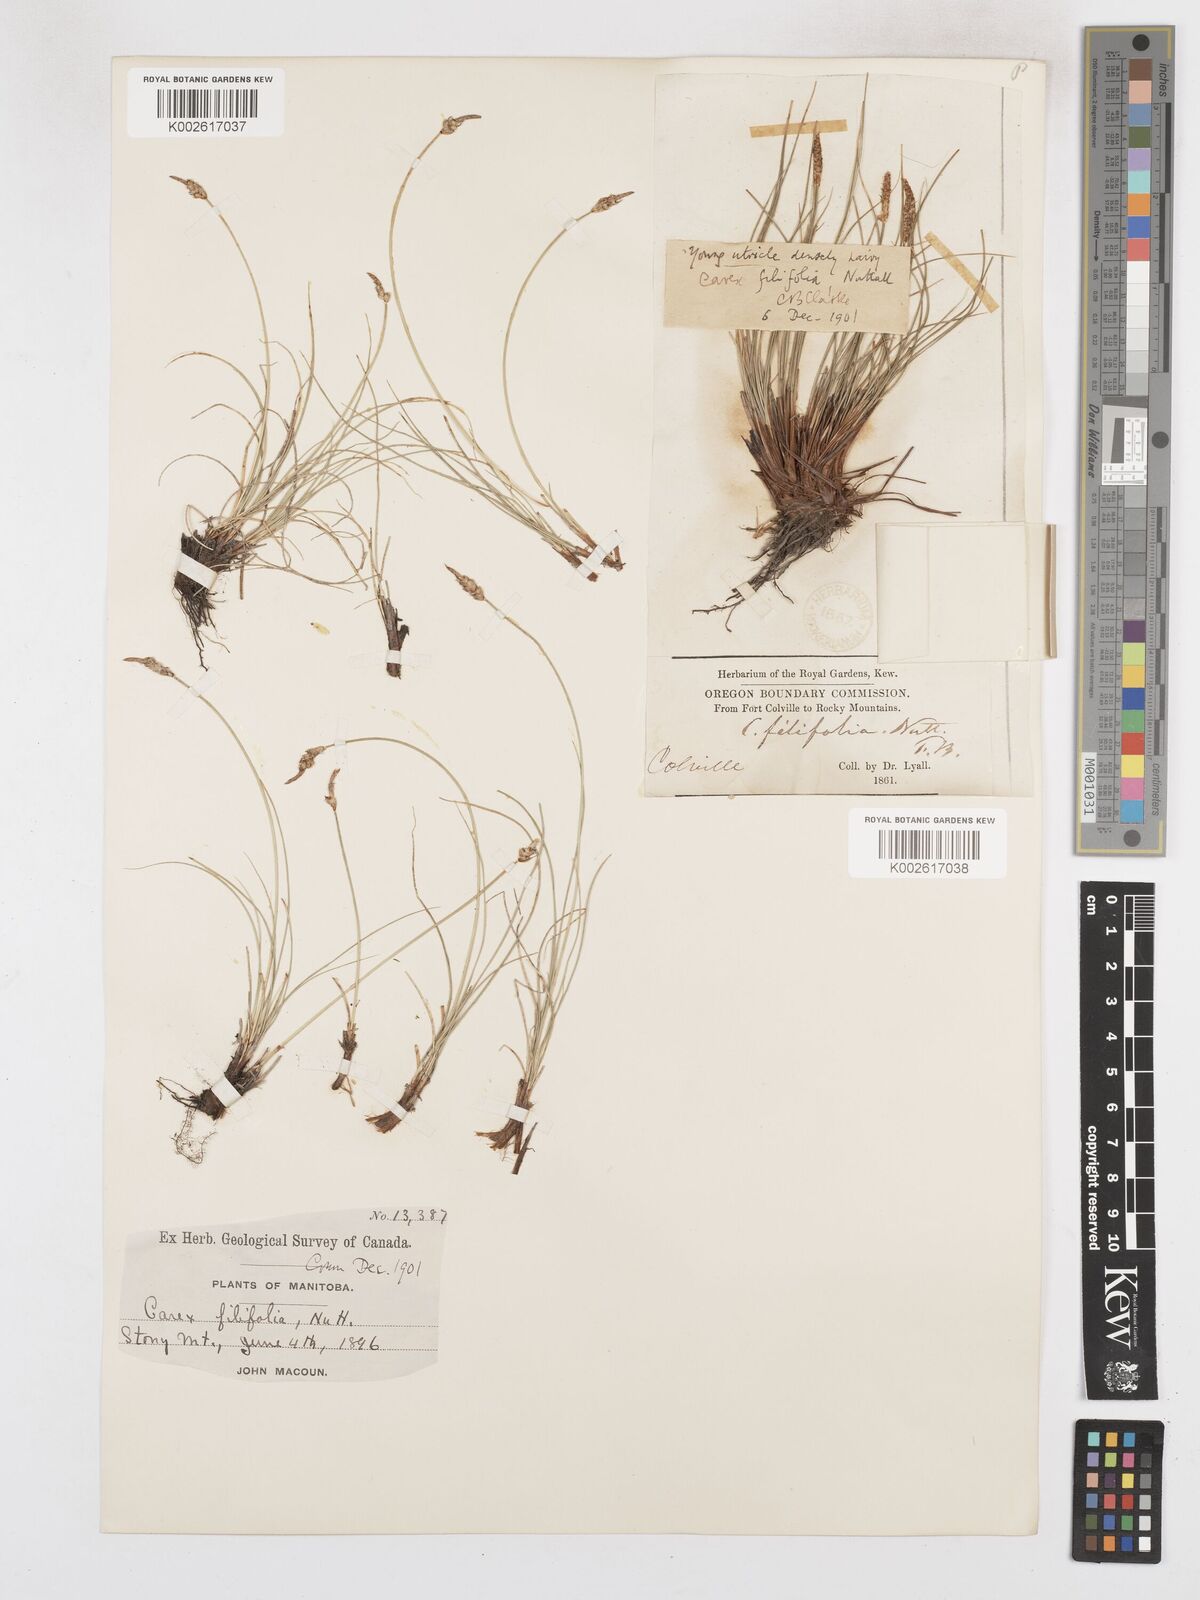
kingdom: Plantae
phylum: Tracheophyta
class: Liliopsida
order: Poales
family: Cyperaceae
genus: Carex
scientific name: Carex filifolia
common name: Threadleaf sedge
